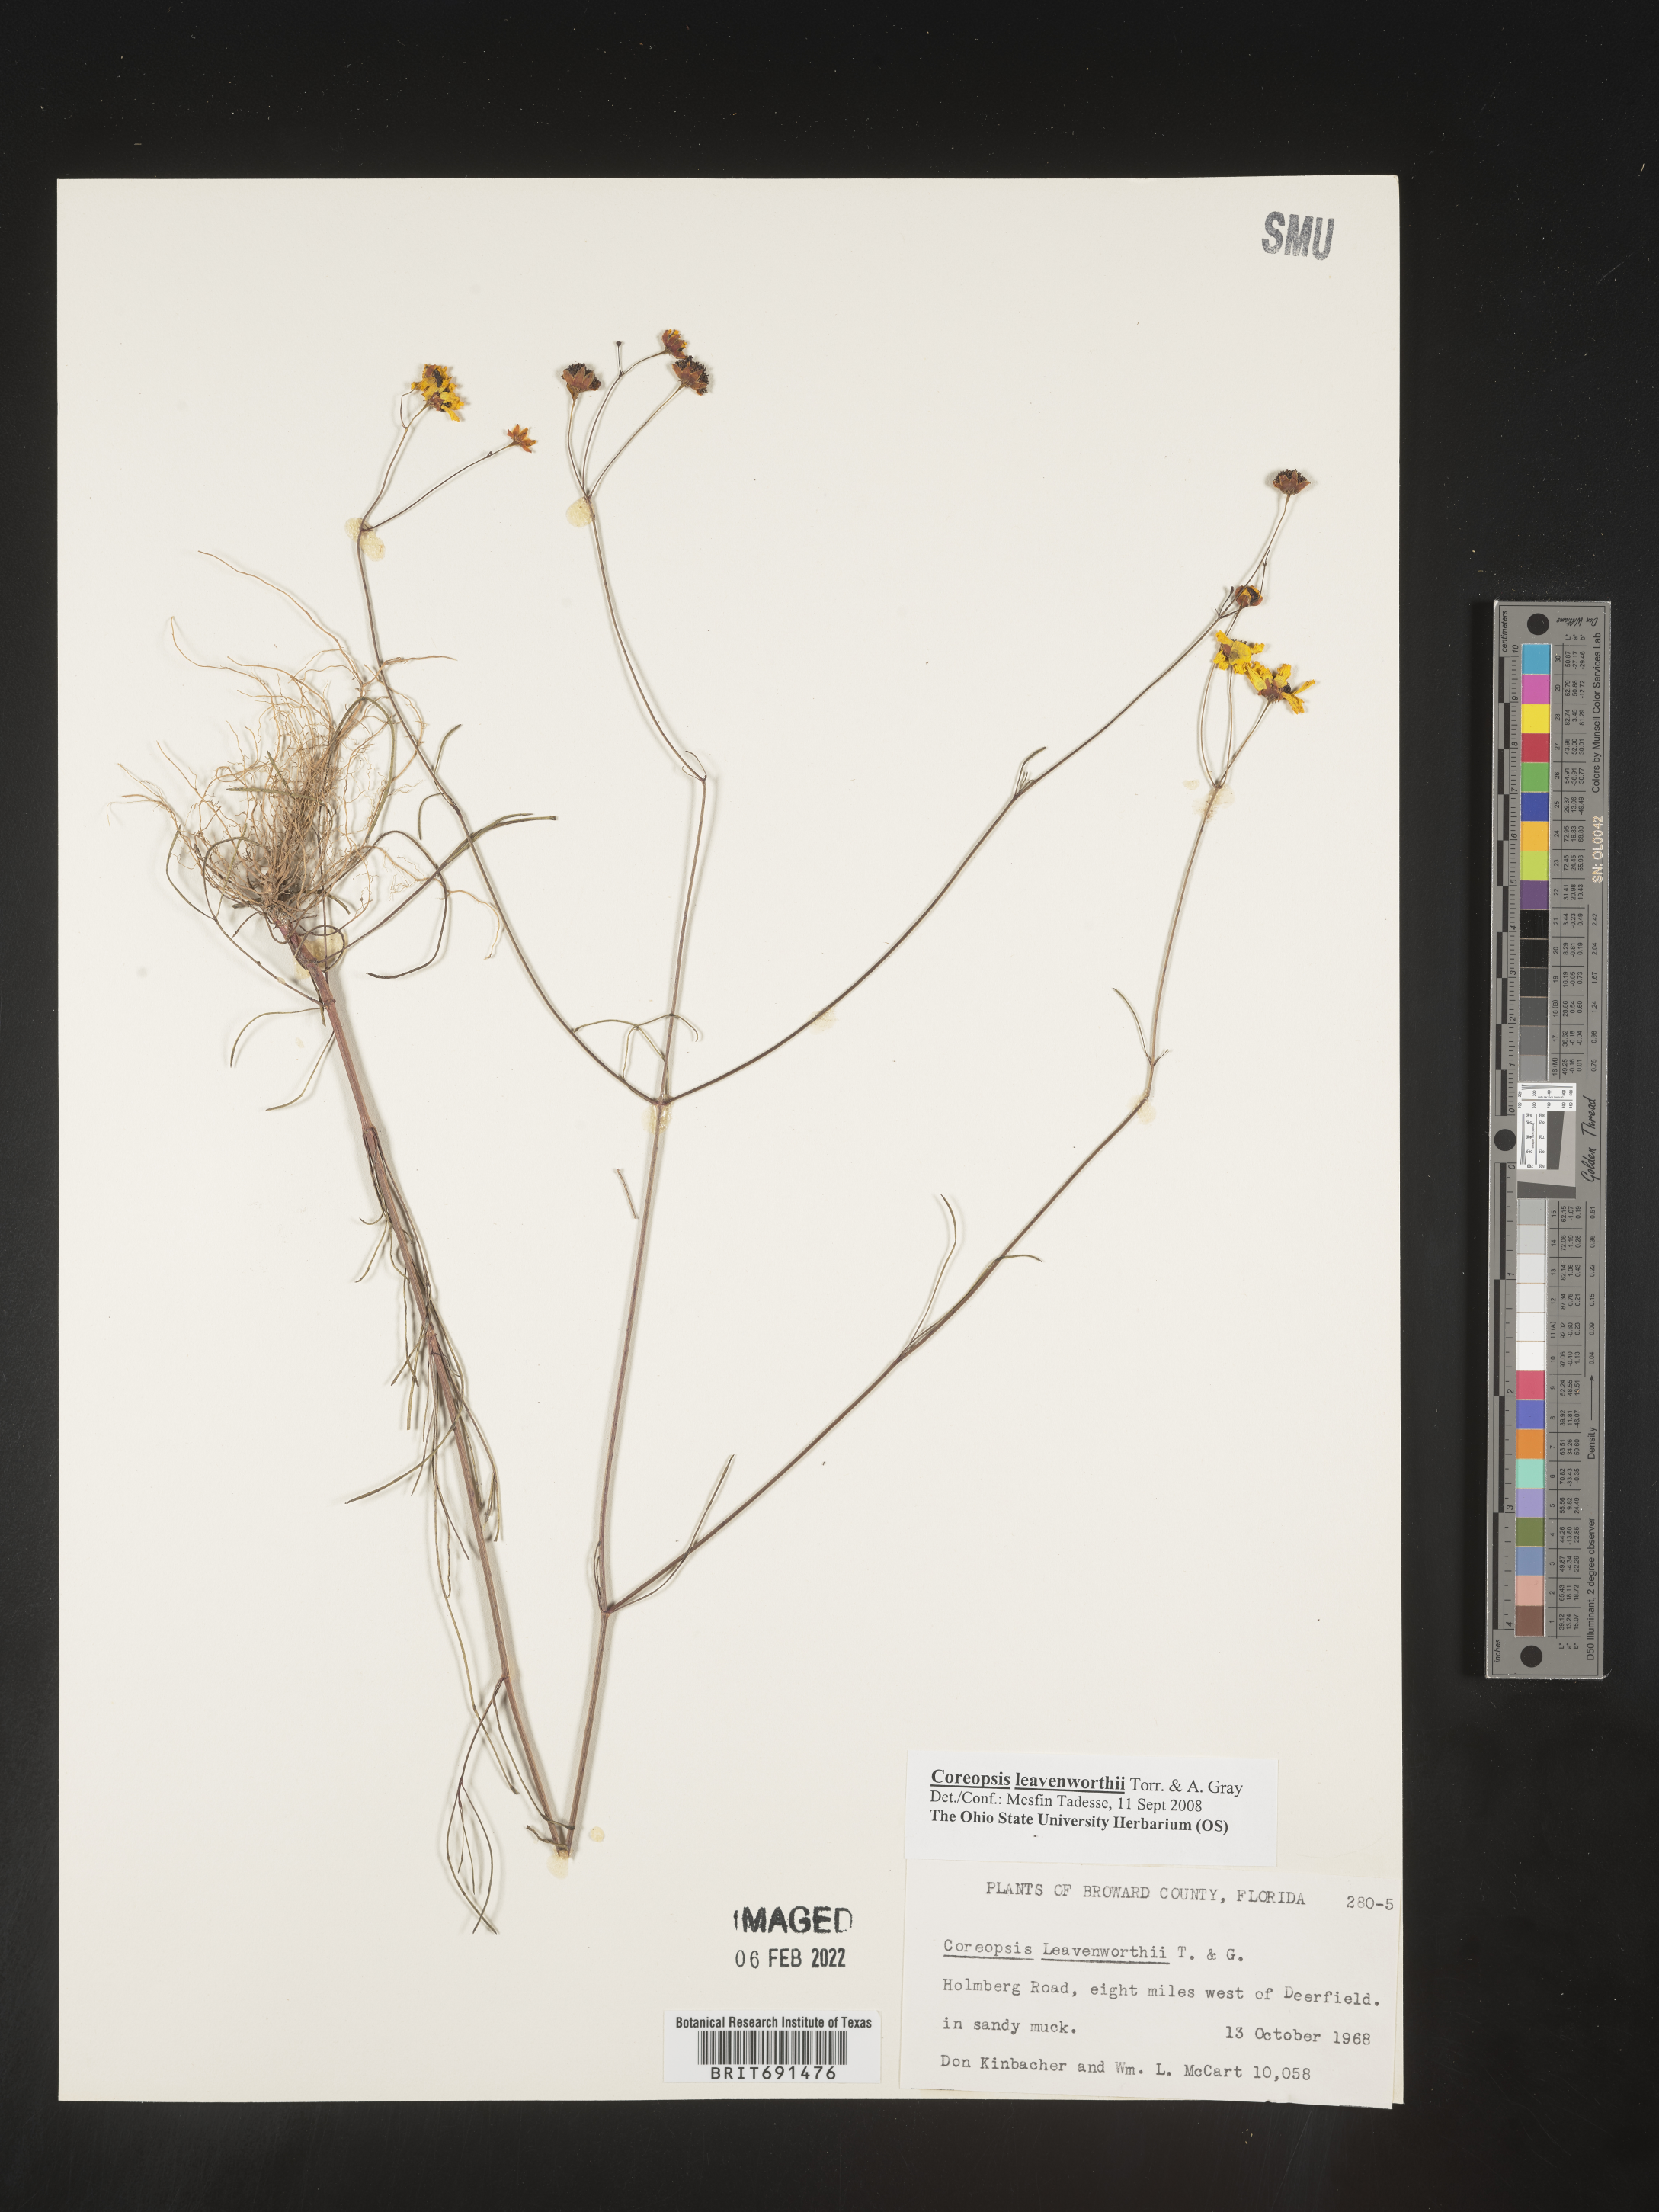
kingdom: Plantae
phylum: Tracheophyta
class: Magnoliopsida
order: Asterales
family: Asteraceae
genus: Coreopsis
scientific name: Coreopsis leavenworthii
